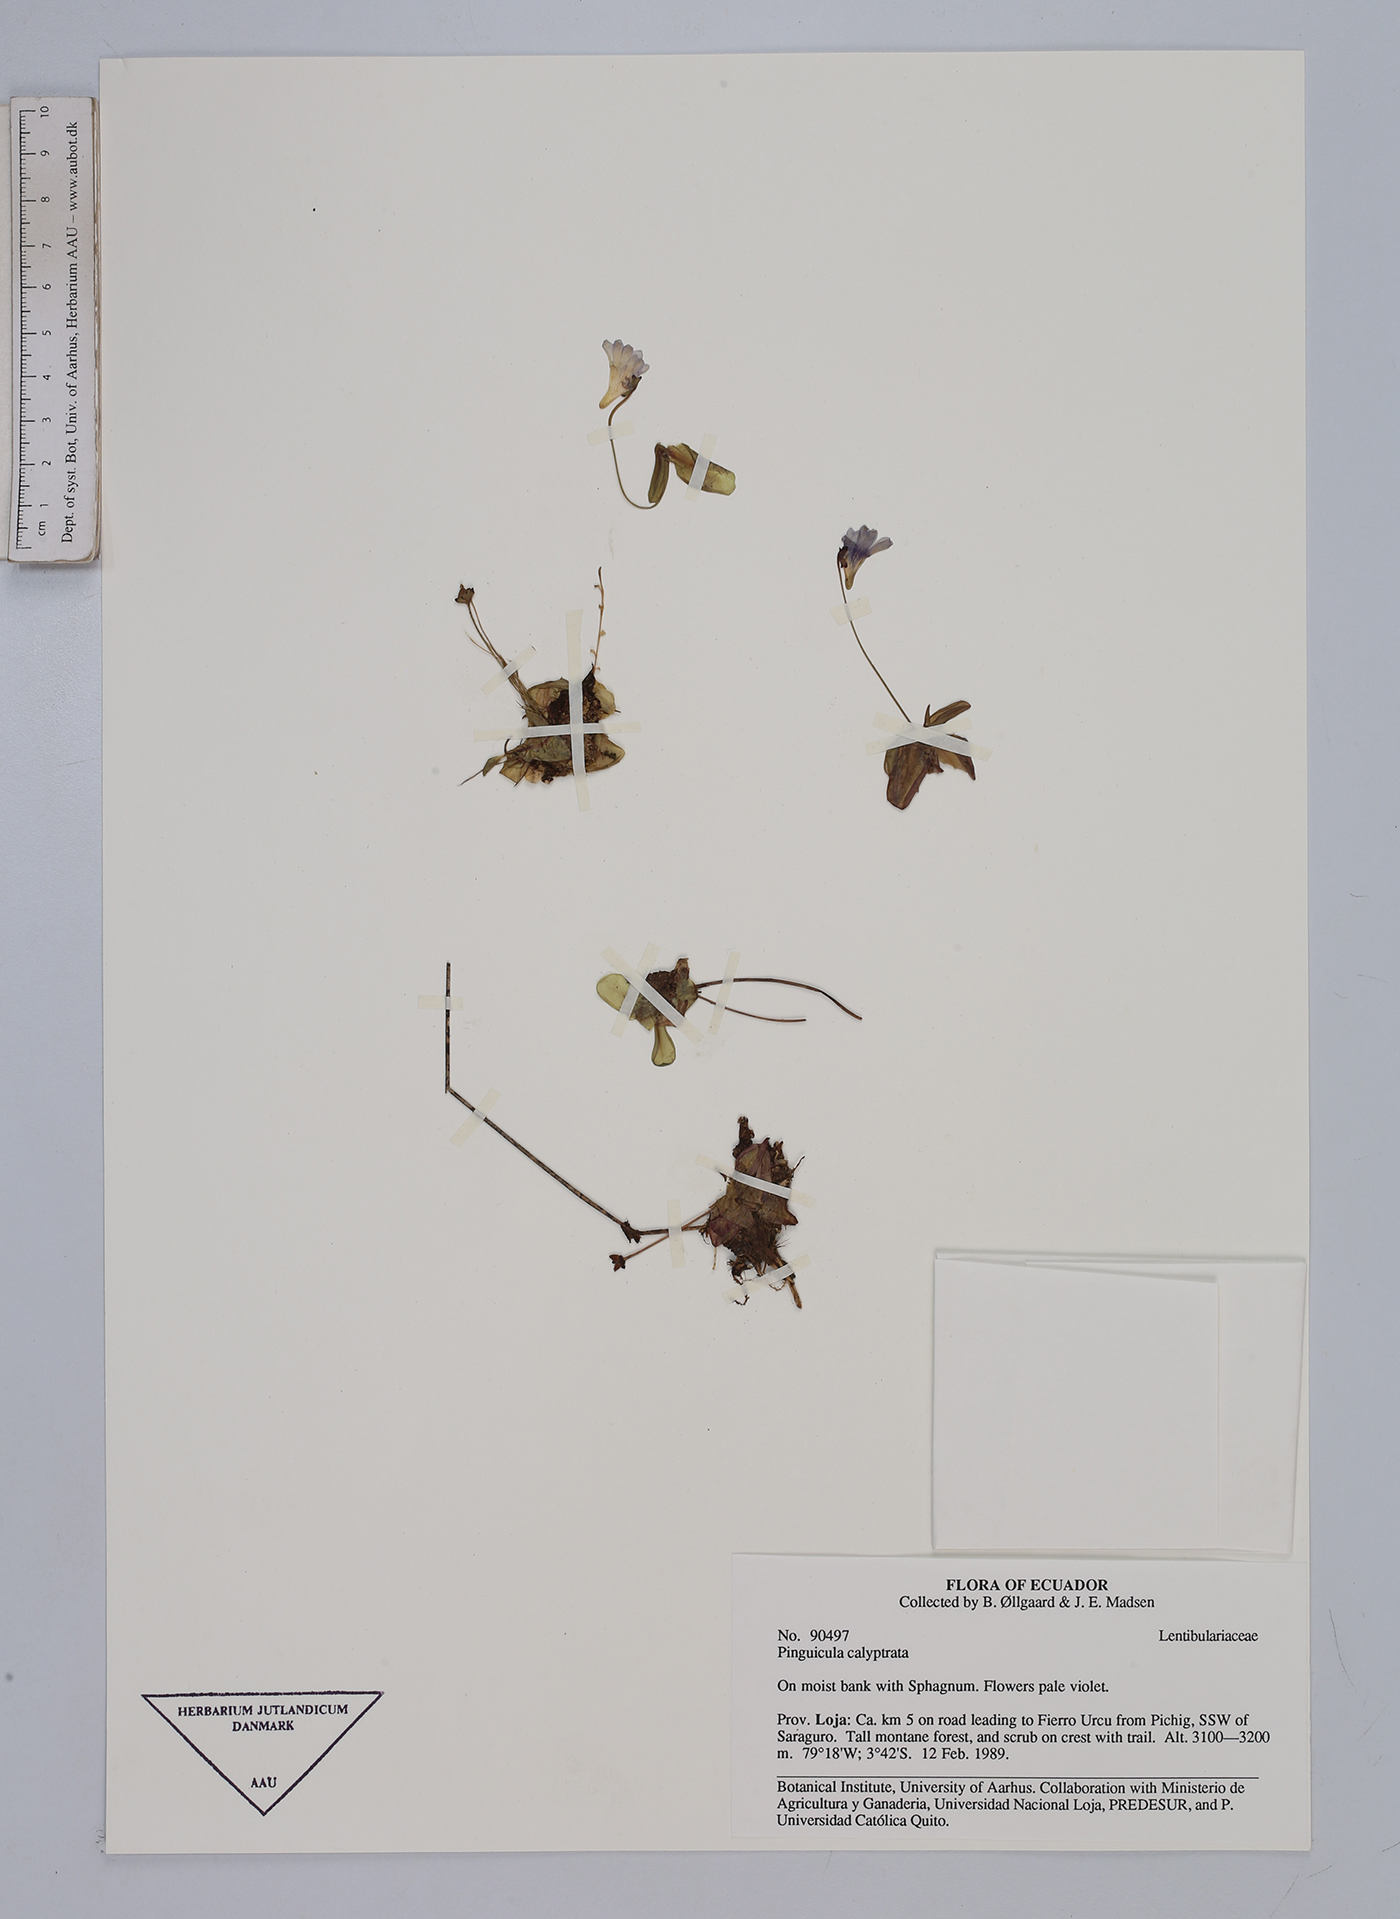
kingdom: Plantae
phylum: Tracheophyta
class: Magnoliopsida
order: Lamiales
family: Lentibulariaceae
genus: Pinguicula
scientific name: Pinguicula calyptrata
